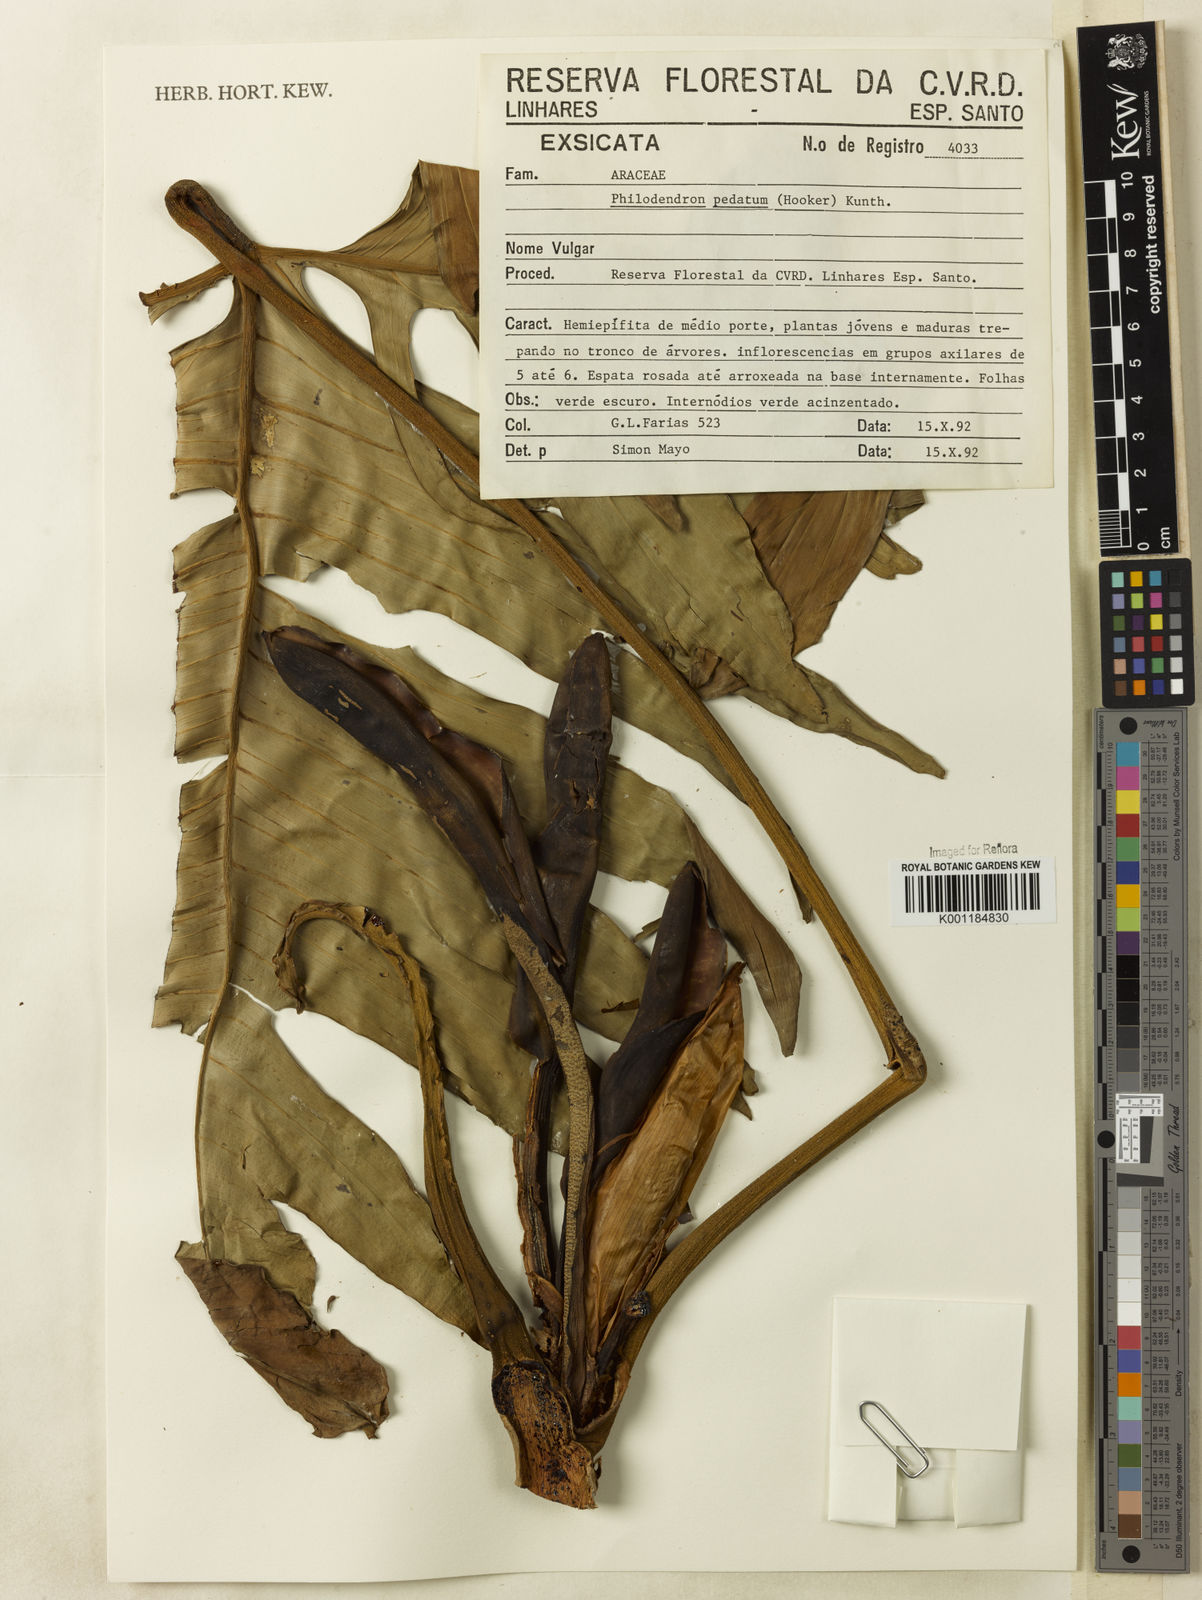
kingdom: Plantae
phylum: Tracheophyta
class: Liliopsida
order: Alismatales
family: Araceae
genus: Philodendron
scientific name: Philodendron pedatum
